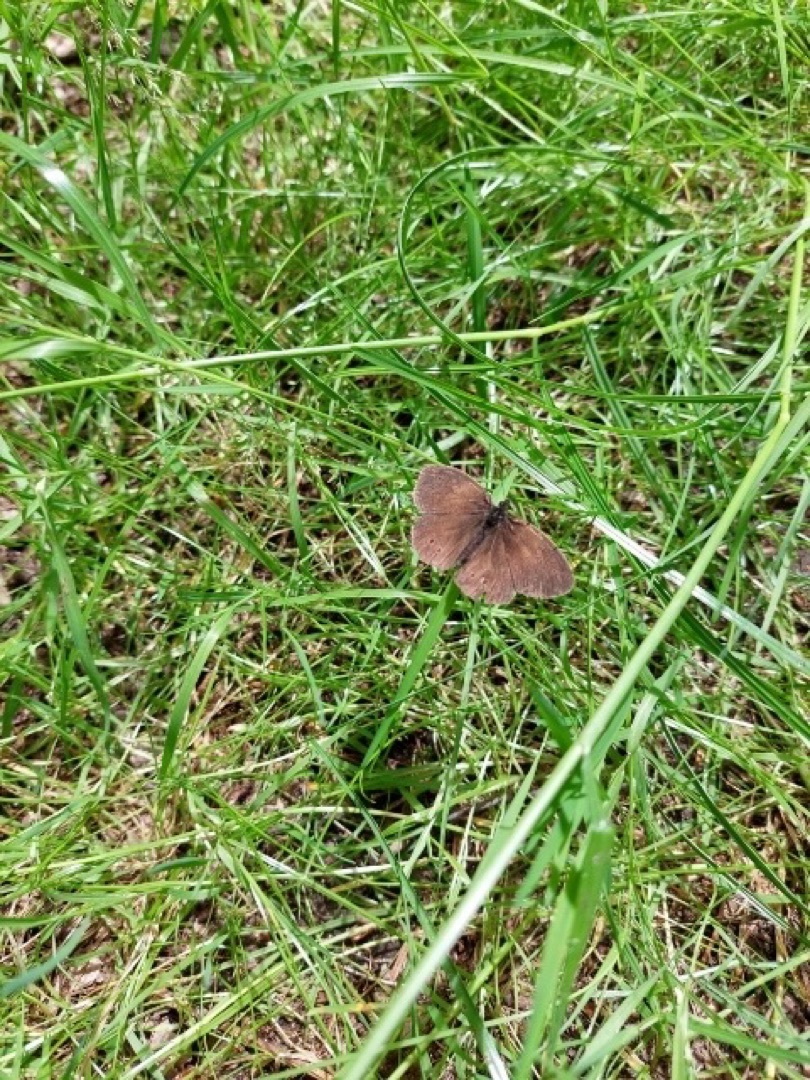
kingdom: Animalia
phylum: Arthropoda
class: Insecta
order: Lepidoptera
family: Nymphalidae
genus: Aphantopus
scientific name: Aphantopus hyperantus
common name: Engrandøje
